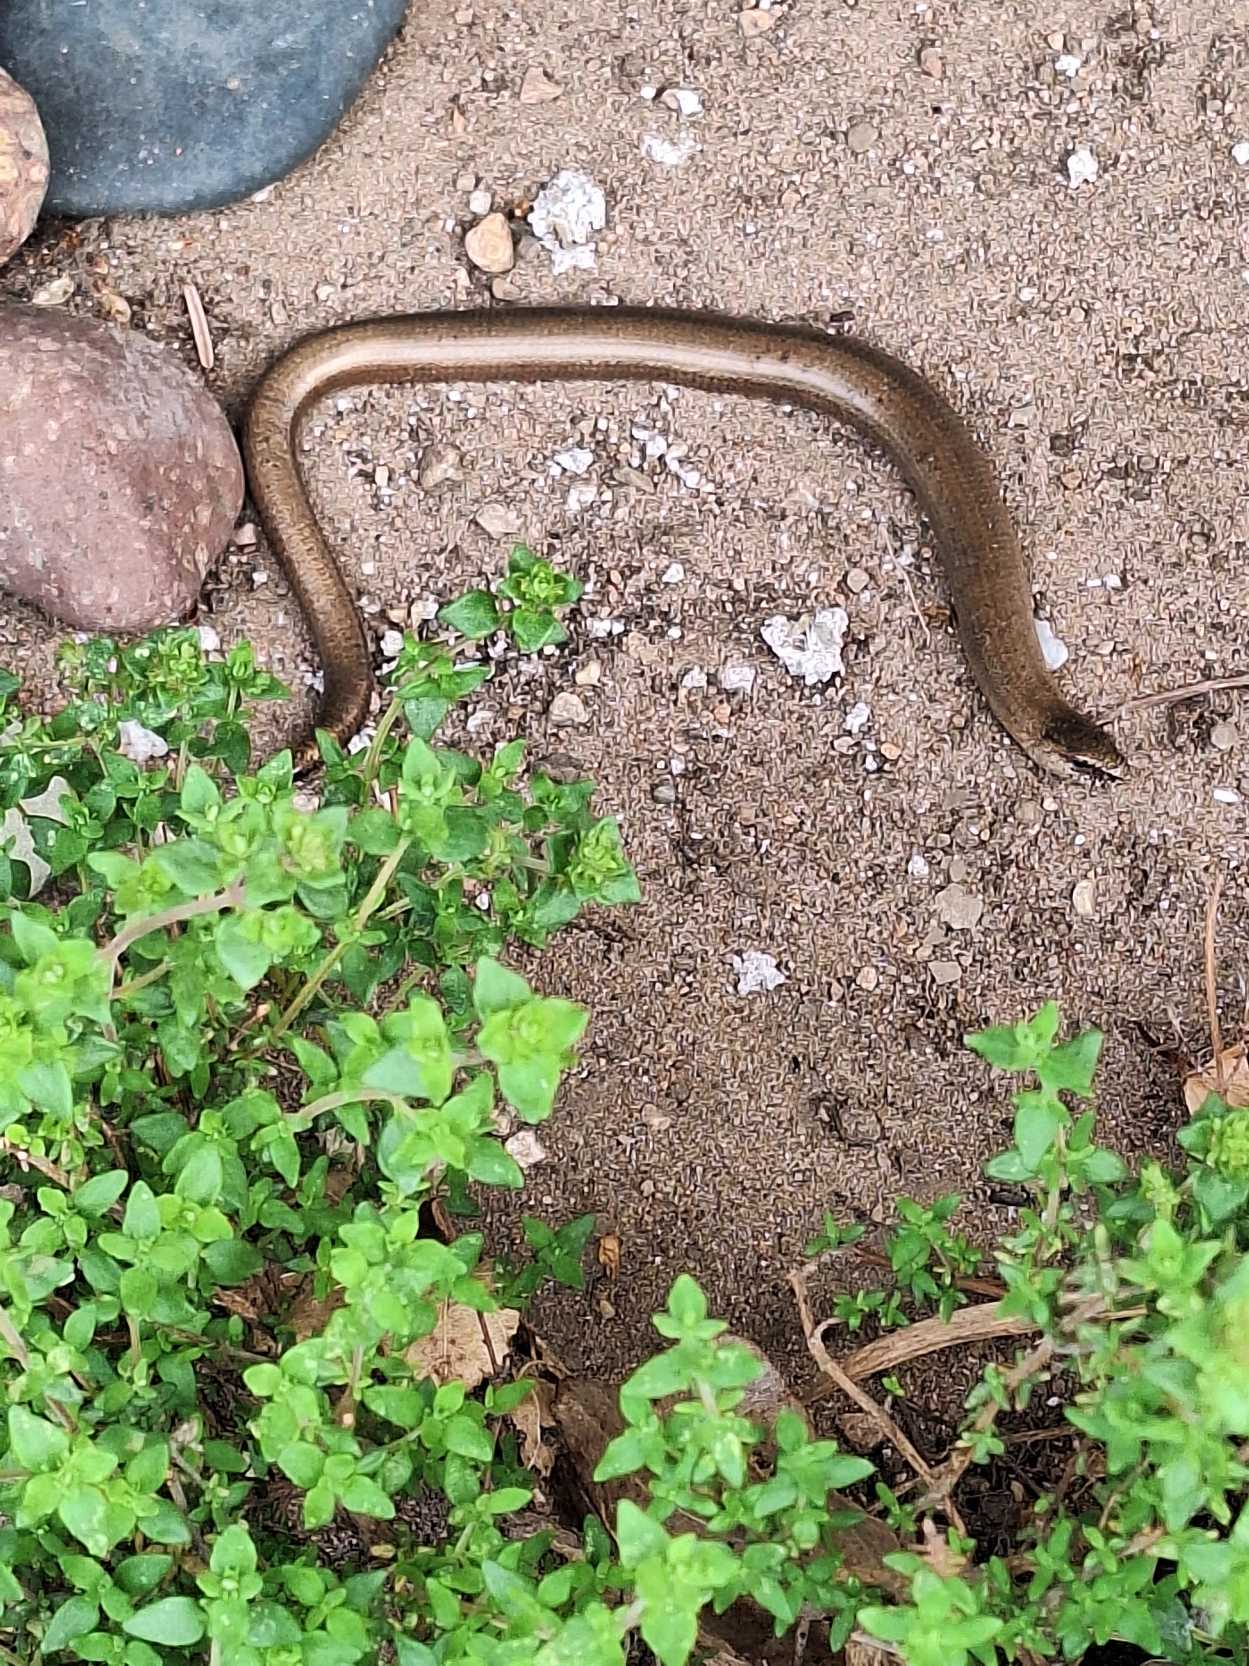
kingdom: Animalia
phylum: Chordata
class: Squamata
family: Anguidae
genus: Anguis
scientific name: Anguis fragilis
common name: Stålorm
